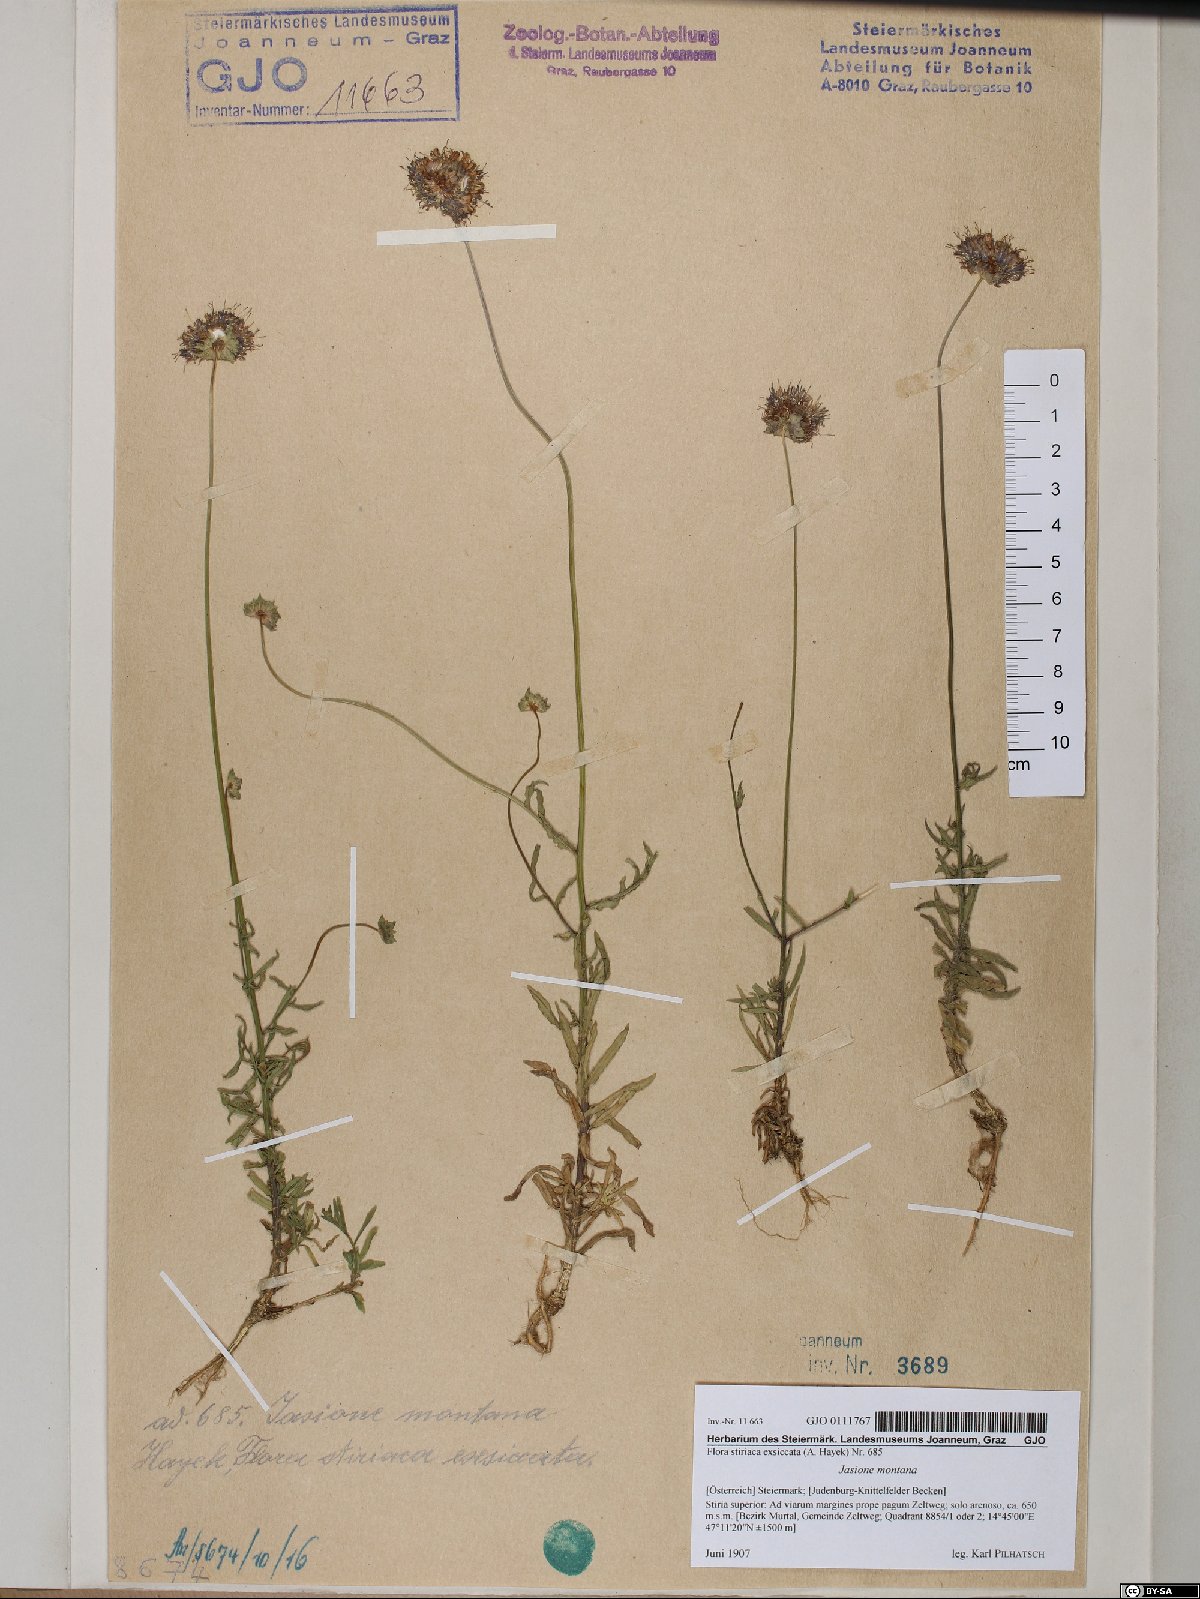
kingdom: Plantae
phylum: Tracheophyta
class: Magnoliopsida
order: Asterales
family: Campanulaceae
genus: Jasione
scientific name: Jasione montana
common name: Sheep's-bit
